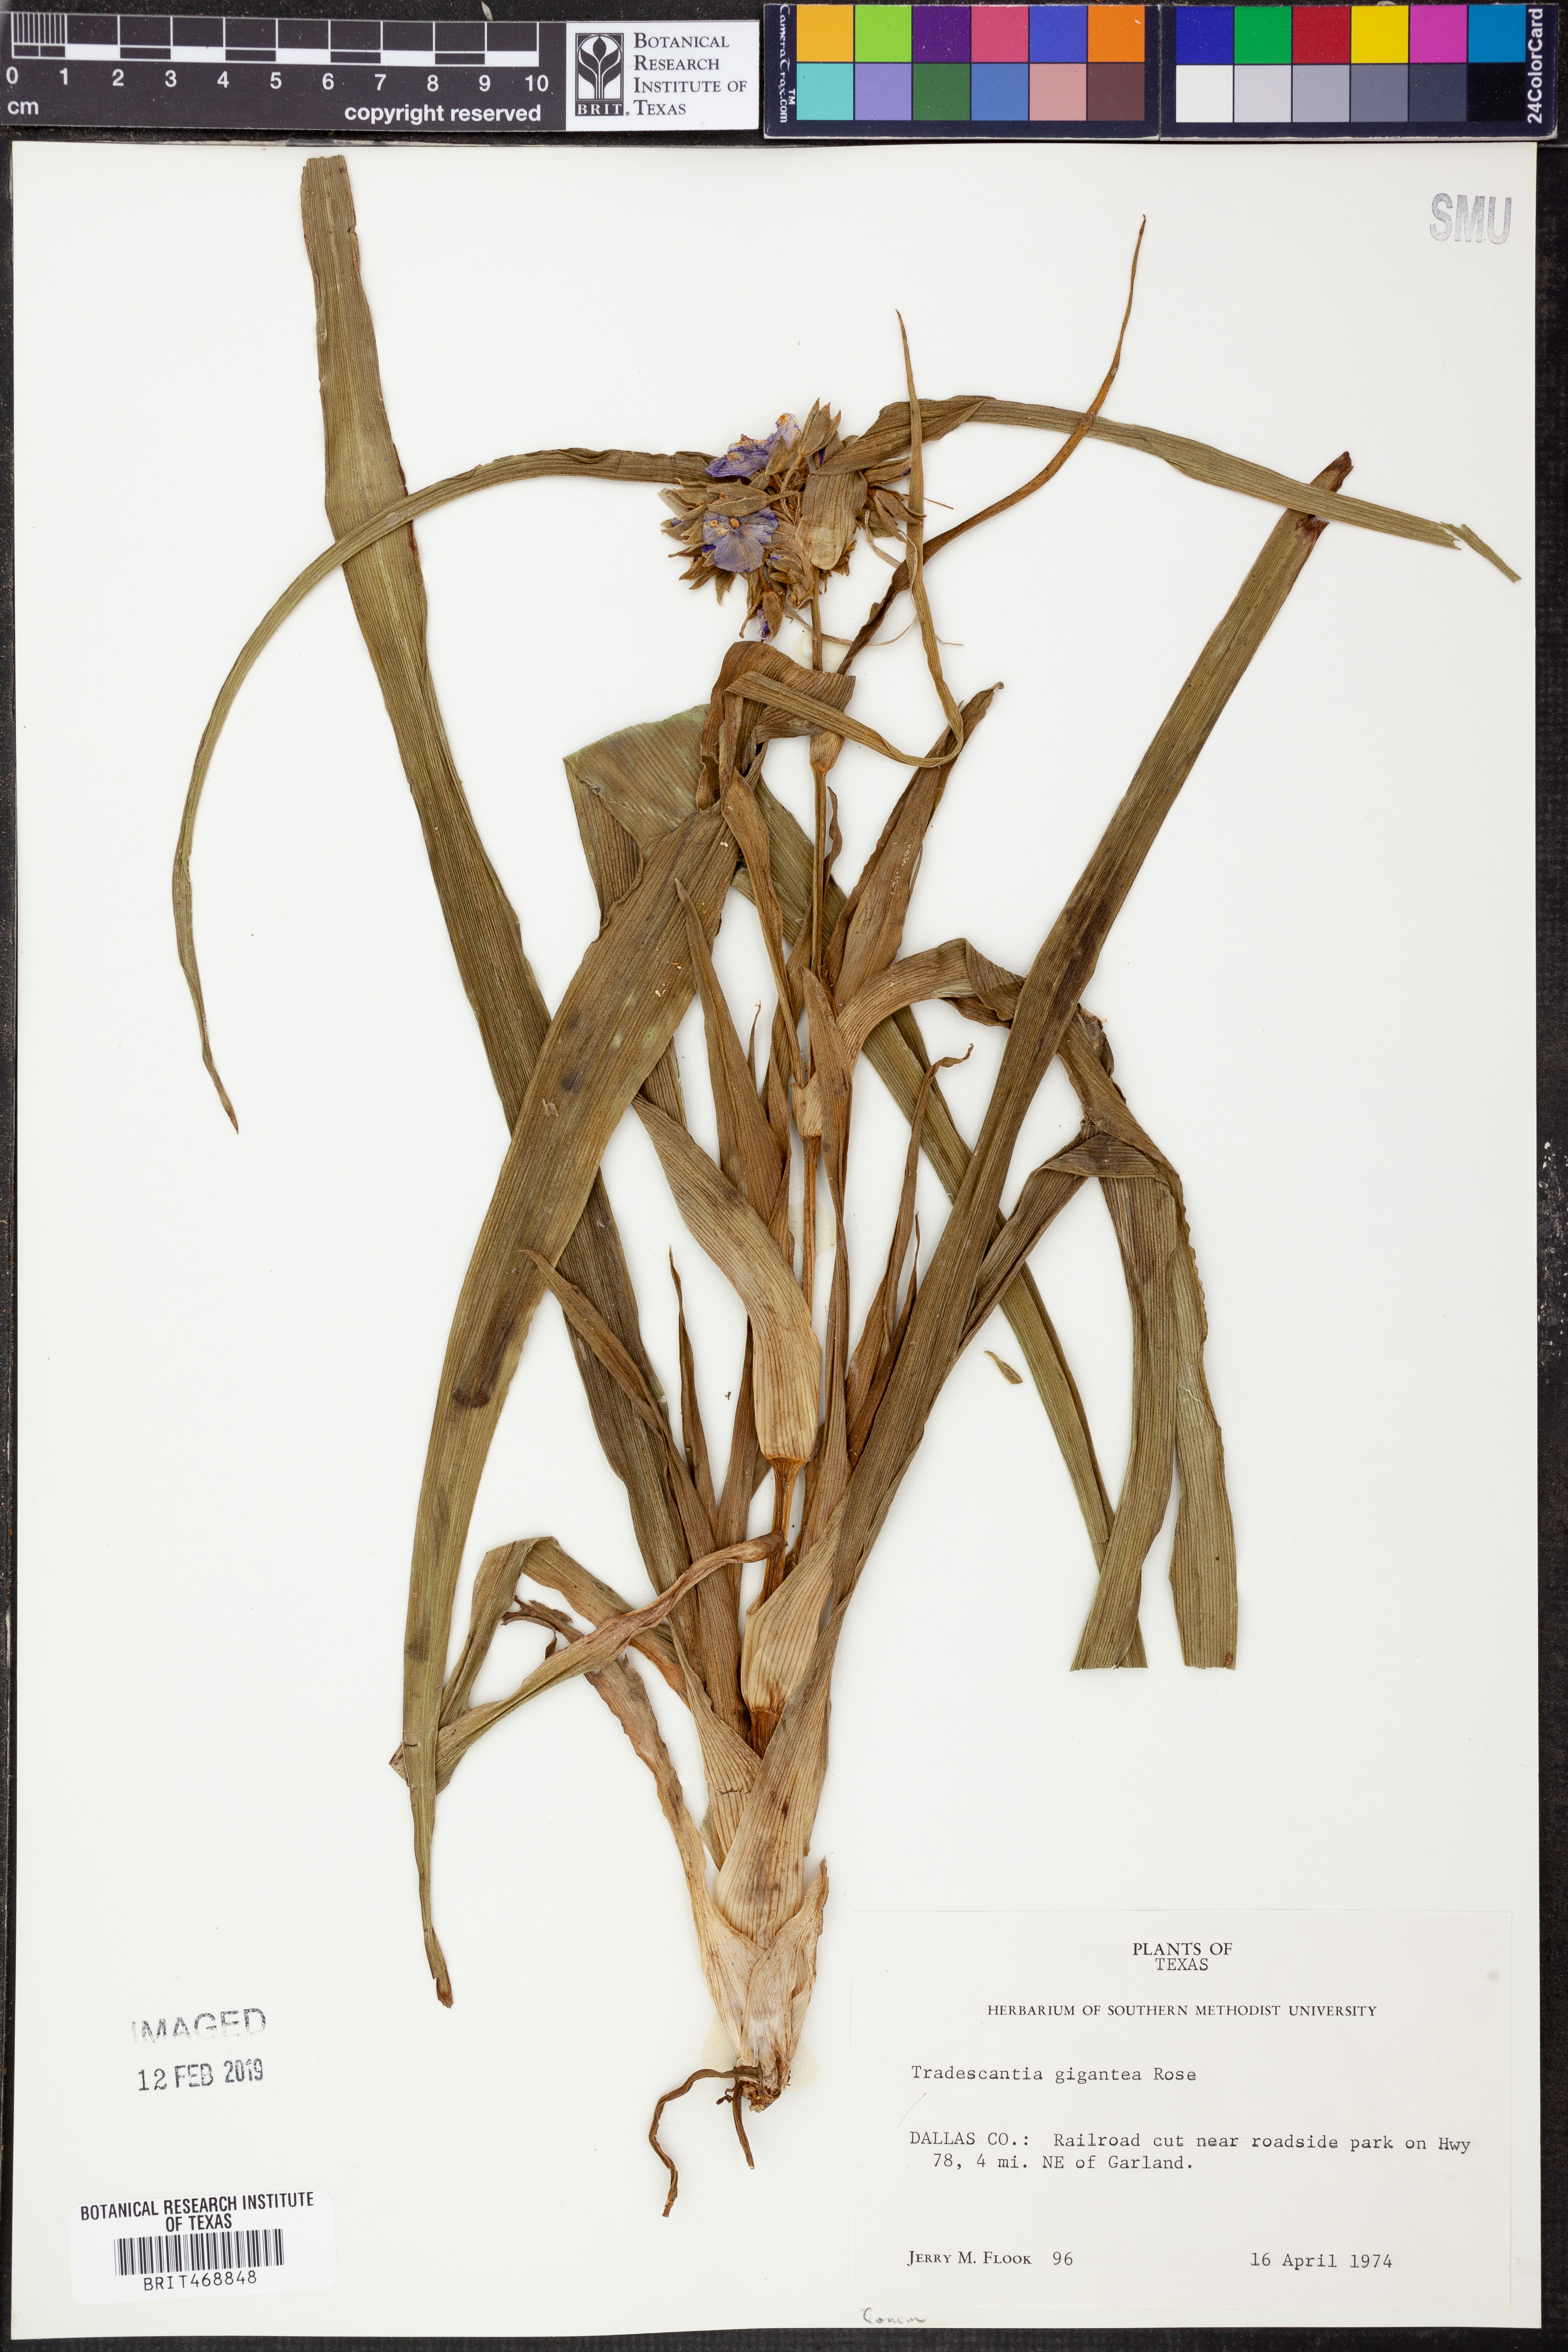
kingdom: Plantae
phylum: Tracheophyta
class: Liliopsida
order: Commelinales
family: Commelinaceae
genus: Tradescantia
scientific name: Tradescantia gigantea
